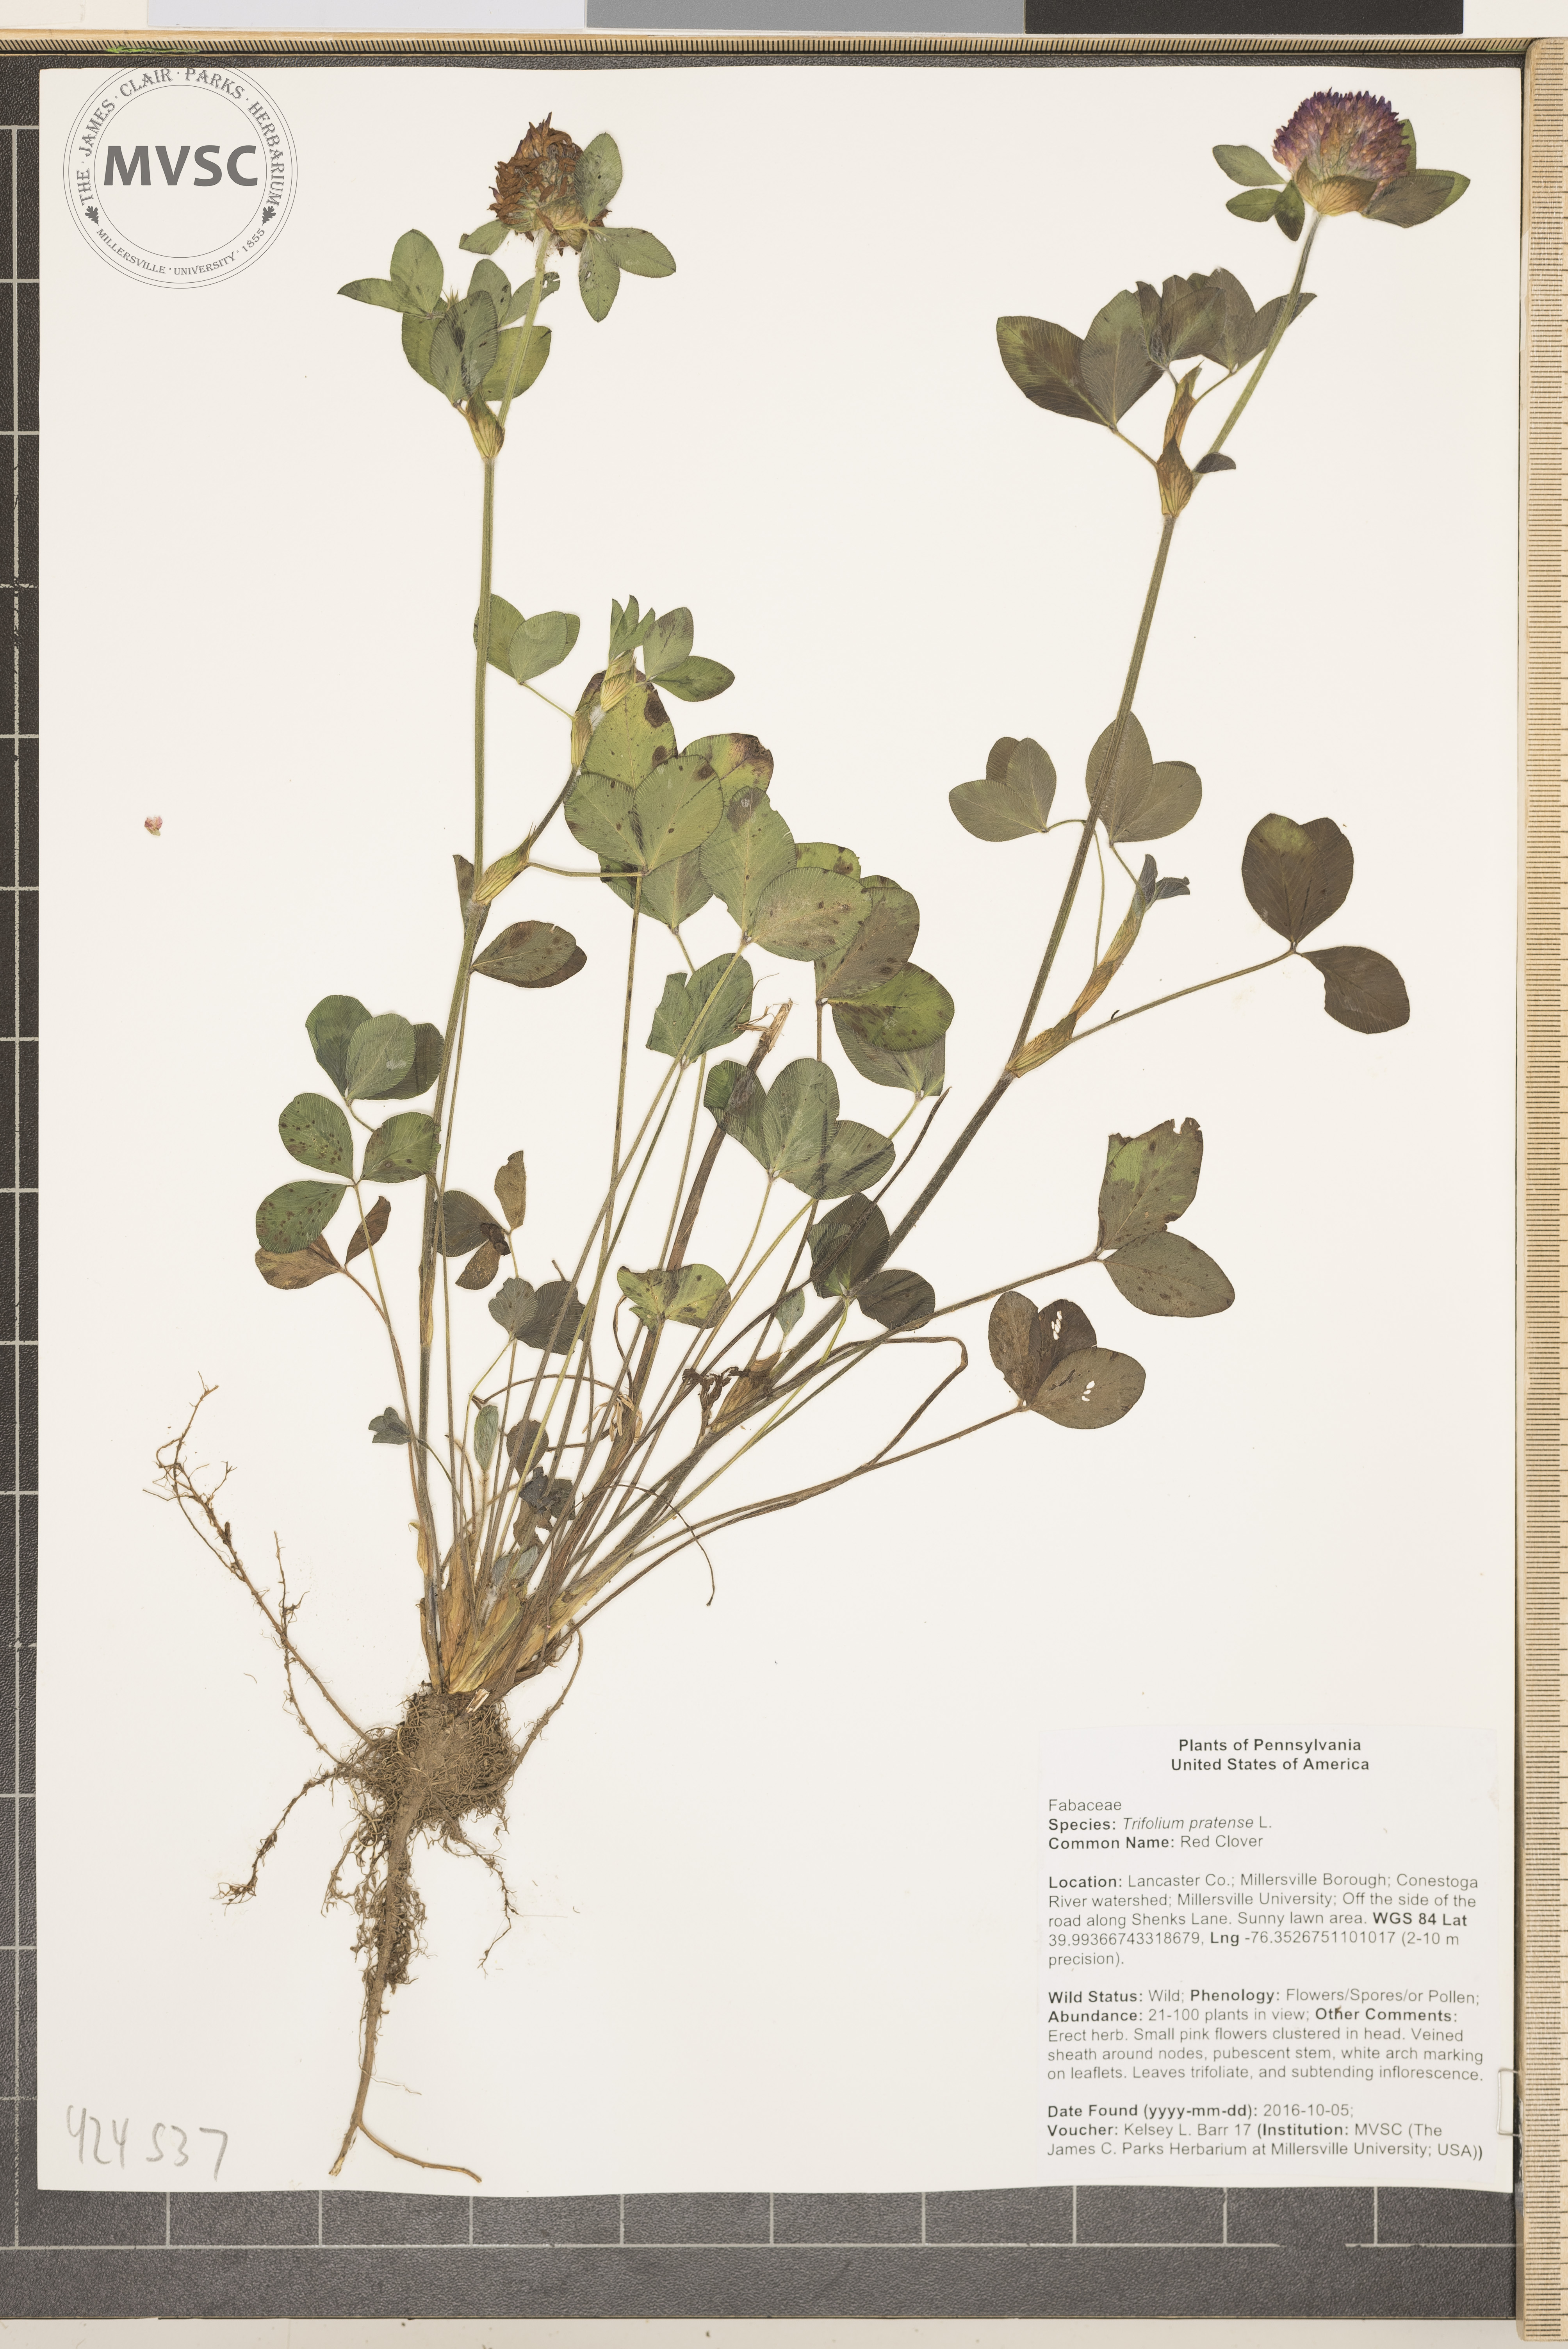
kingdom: Plantae
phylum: Tracheophyta
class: Magnoliopsida
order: Fabales
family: Fabaceae
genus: Trifolium
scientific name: Trifolium pratense
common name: Red clover
